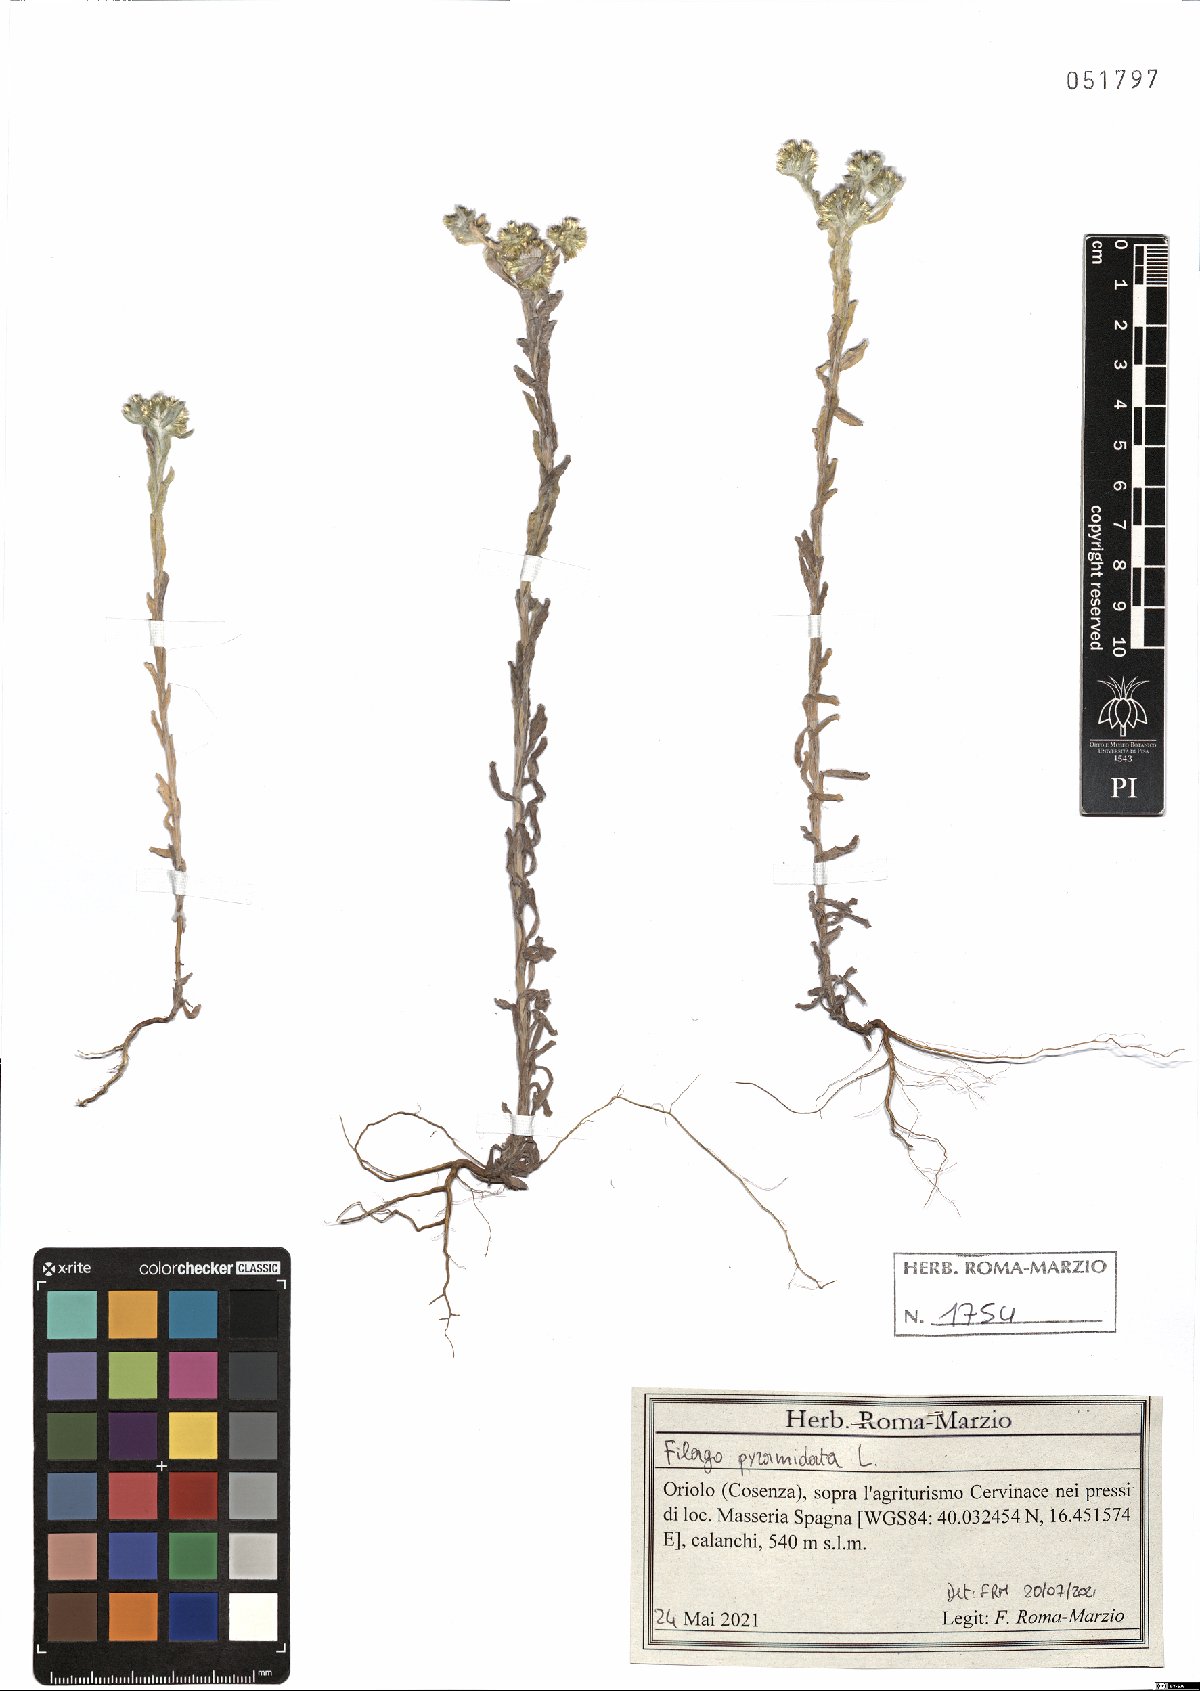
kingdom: Plantae
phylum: Tracheophyta
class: Magnoliopsida
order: Asterales
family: Asteraceae
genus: Filago
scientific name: Filago pyramidata
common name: Broad-leaved cudweed
